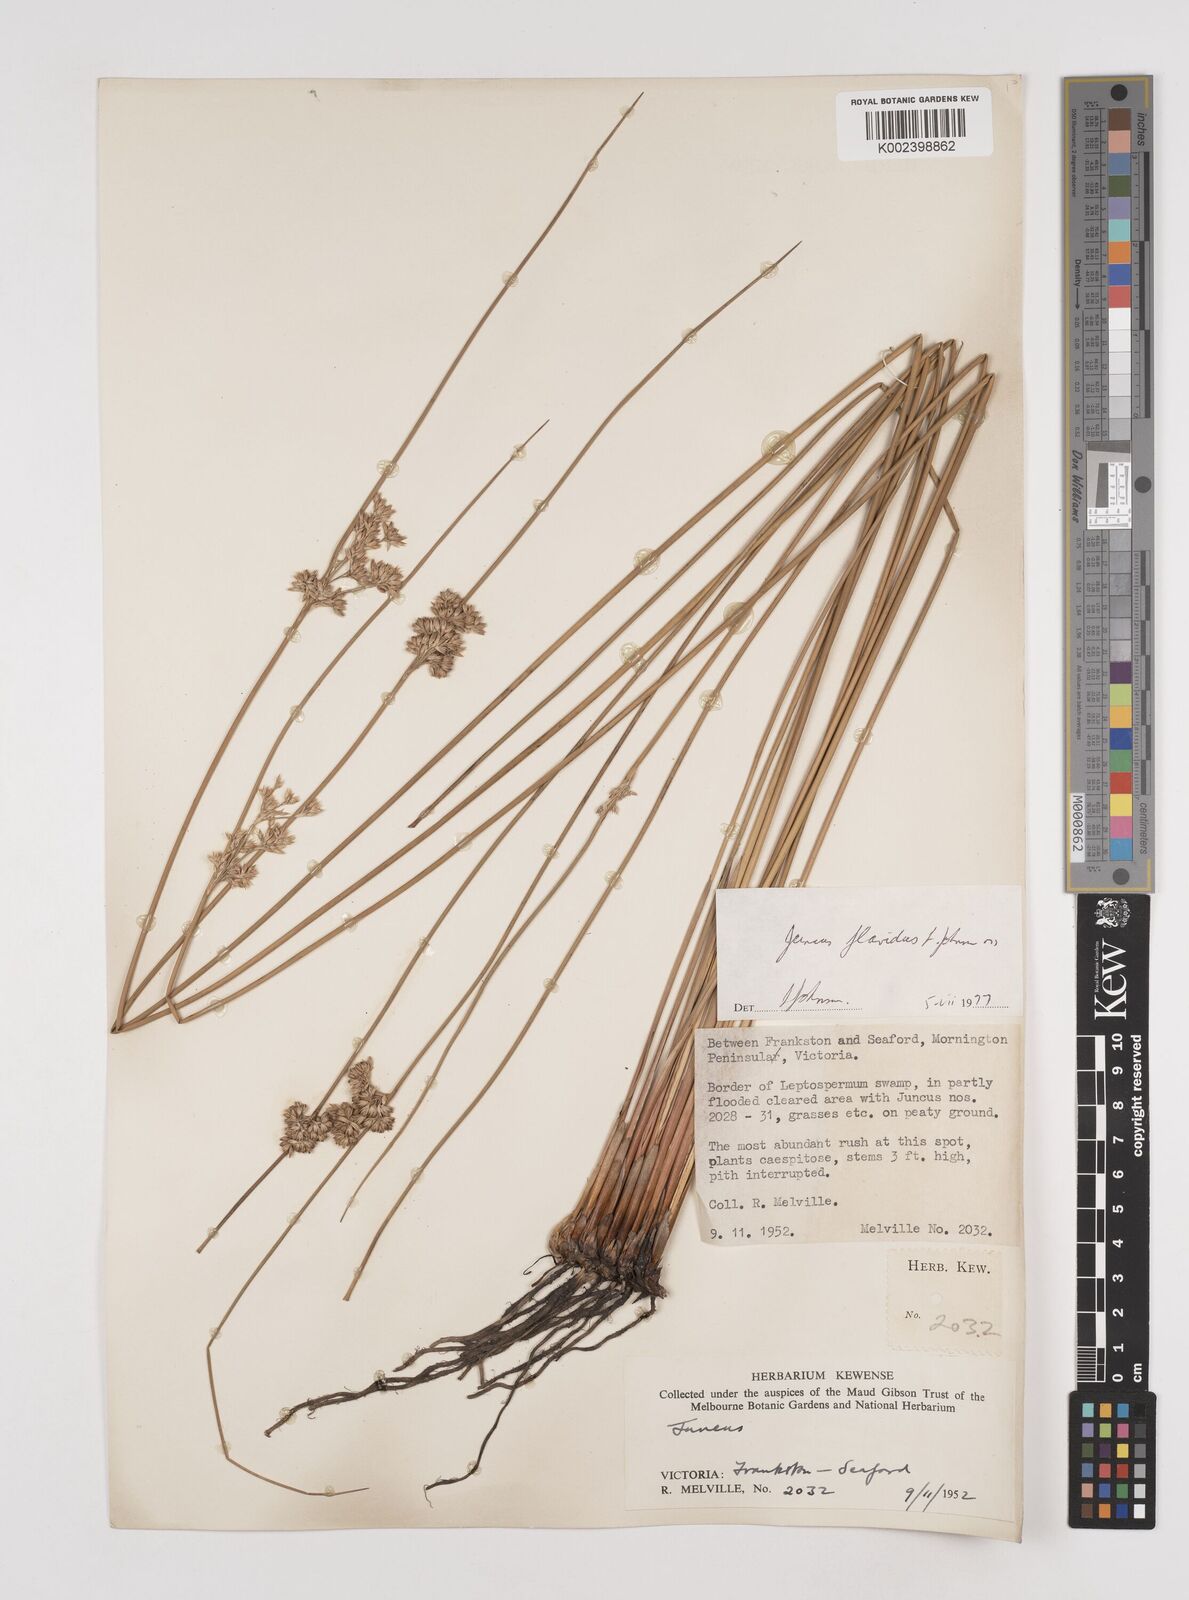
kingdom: Plantae
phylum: Tracheophyta
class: Liliopsida
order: Poales
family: Juncaceae
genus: Juncus
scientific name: Juncus flavidus
